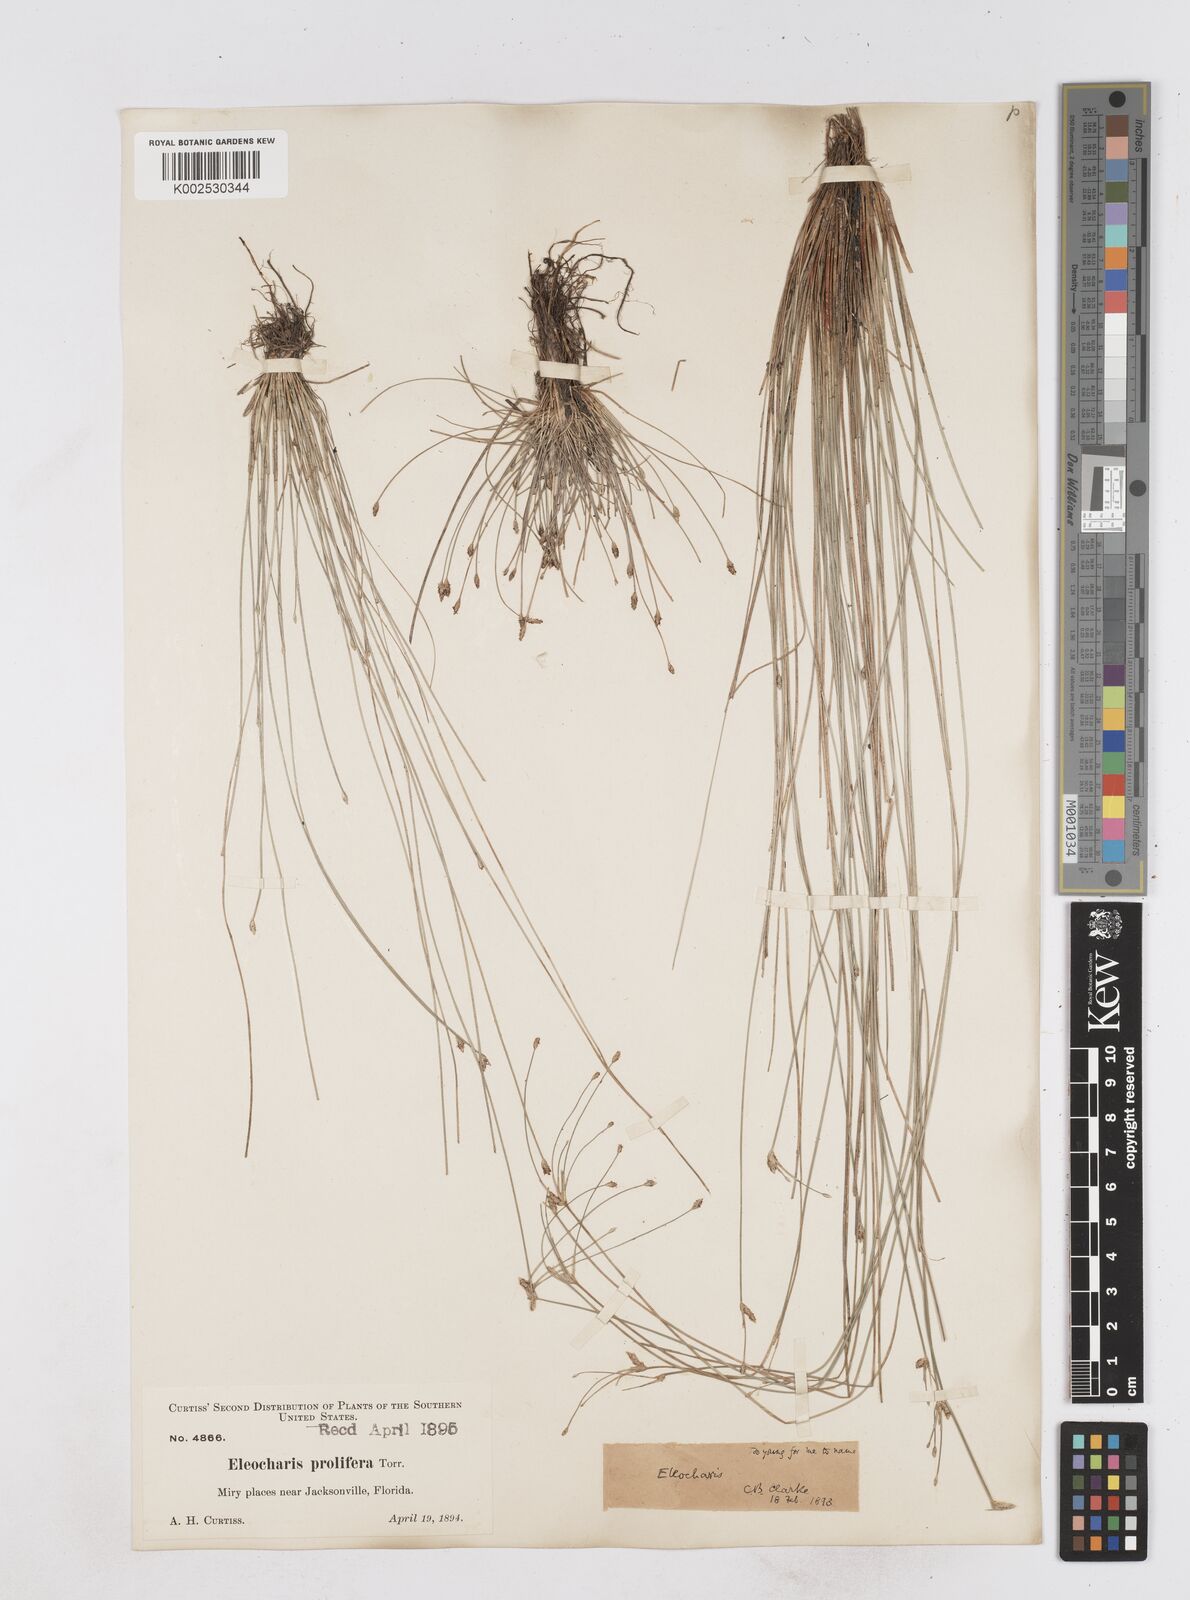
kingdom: Plantae
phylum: Tracheophyta
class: Liliopsida
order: Poales
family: Cyperaceae
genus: Eleocharis
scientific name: Eleocharis
